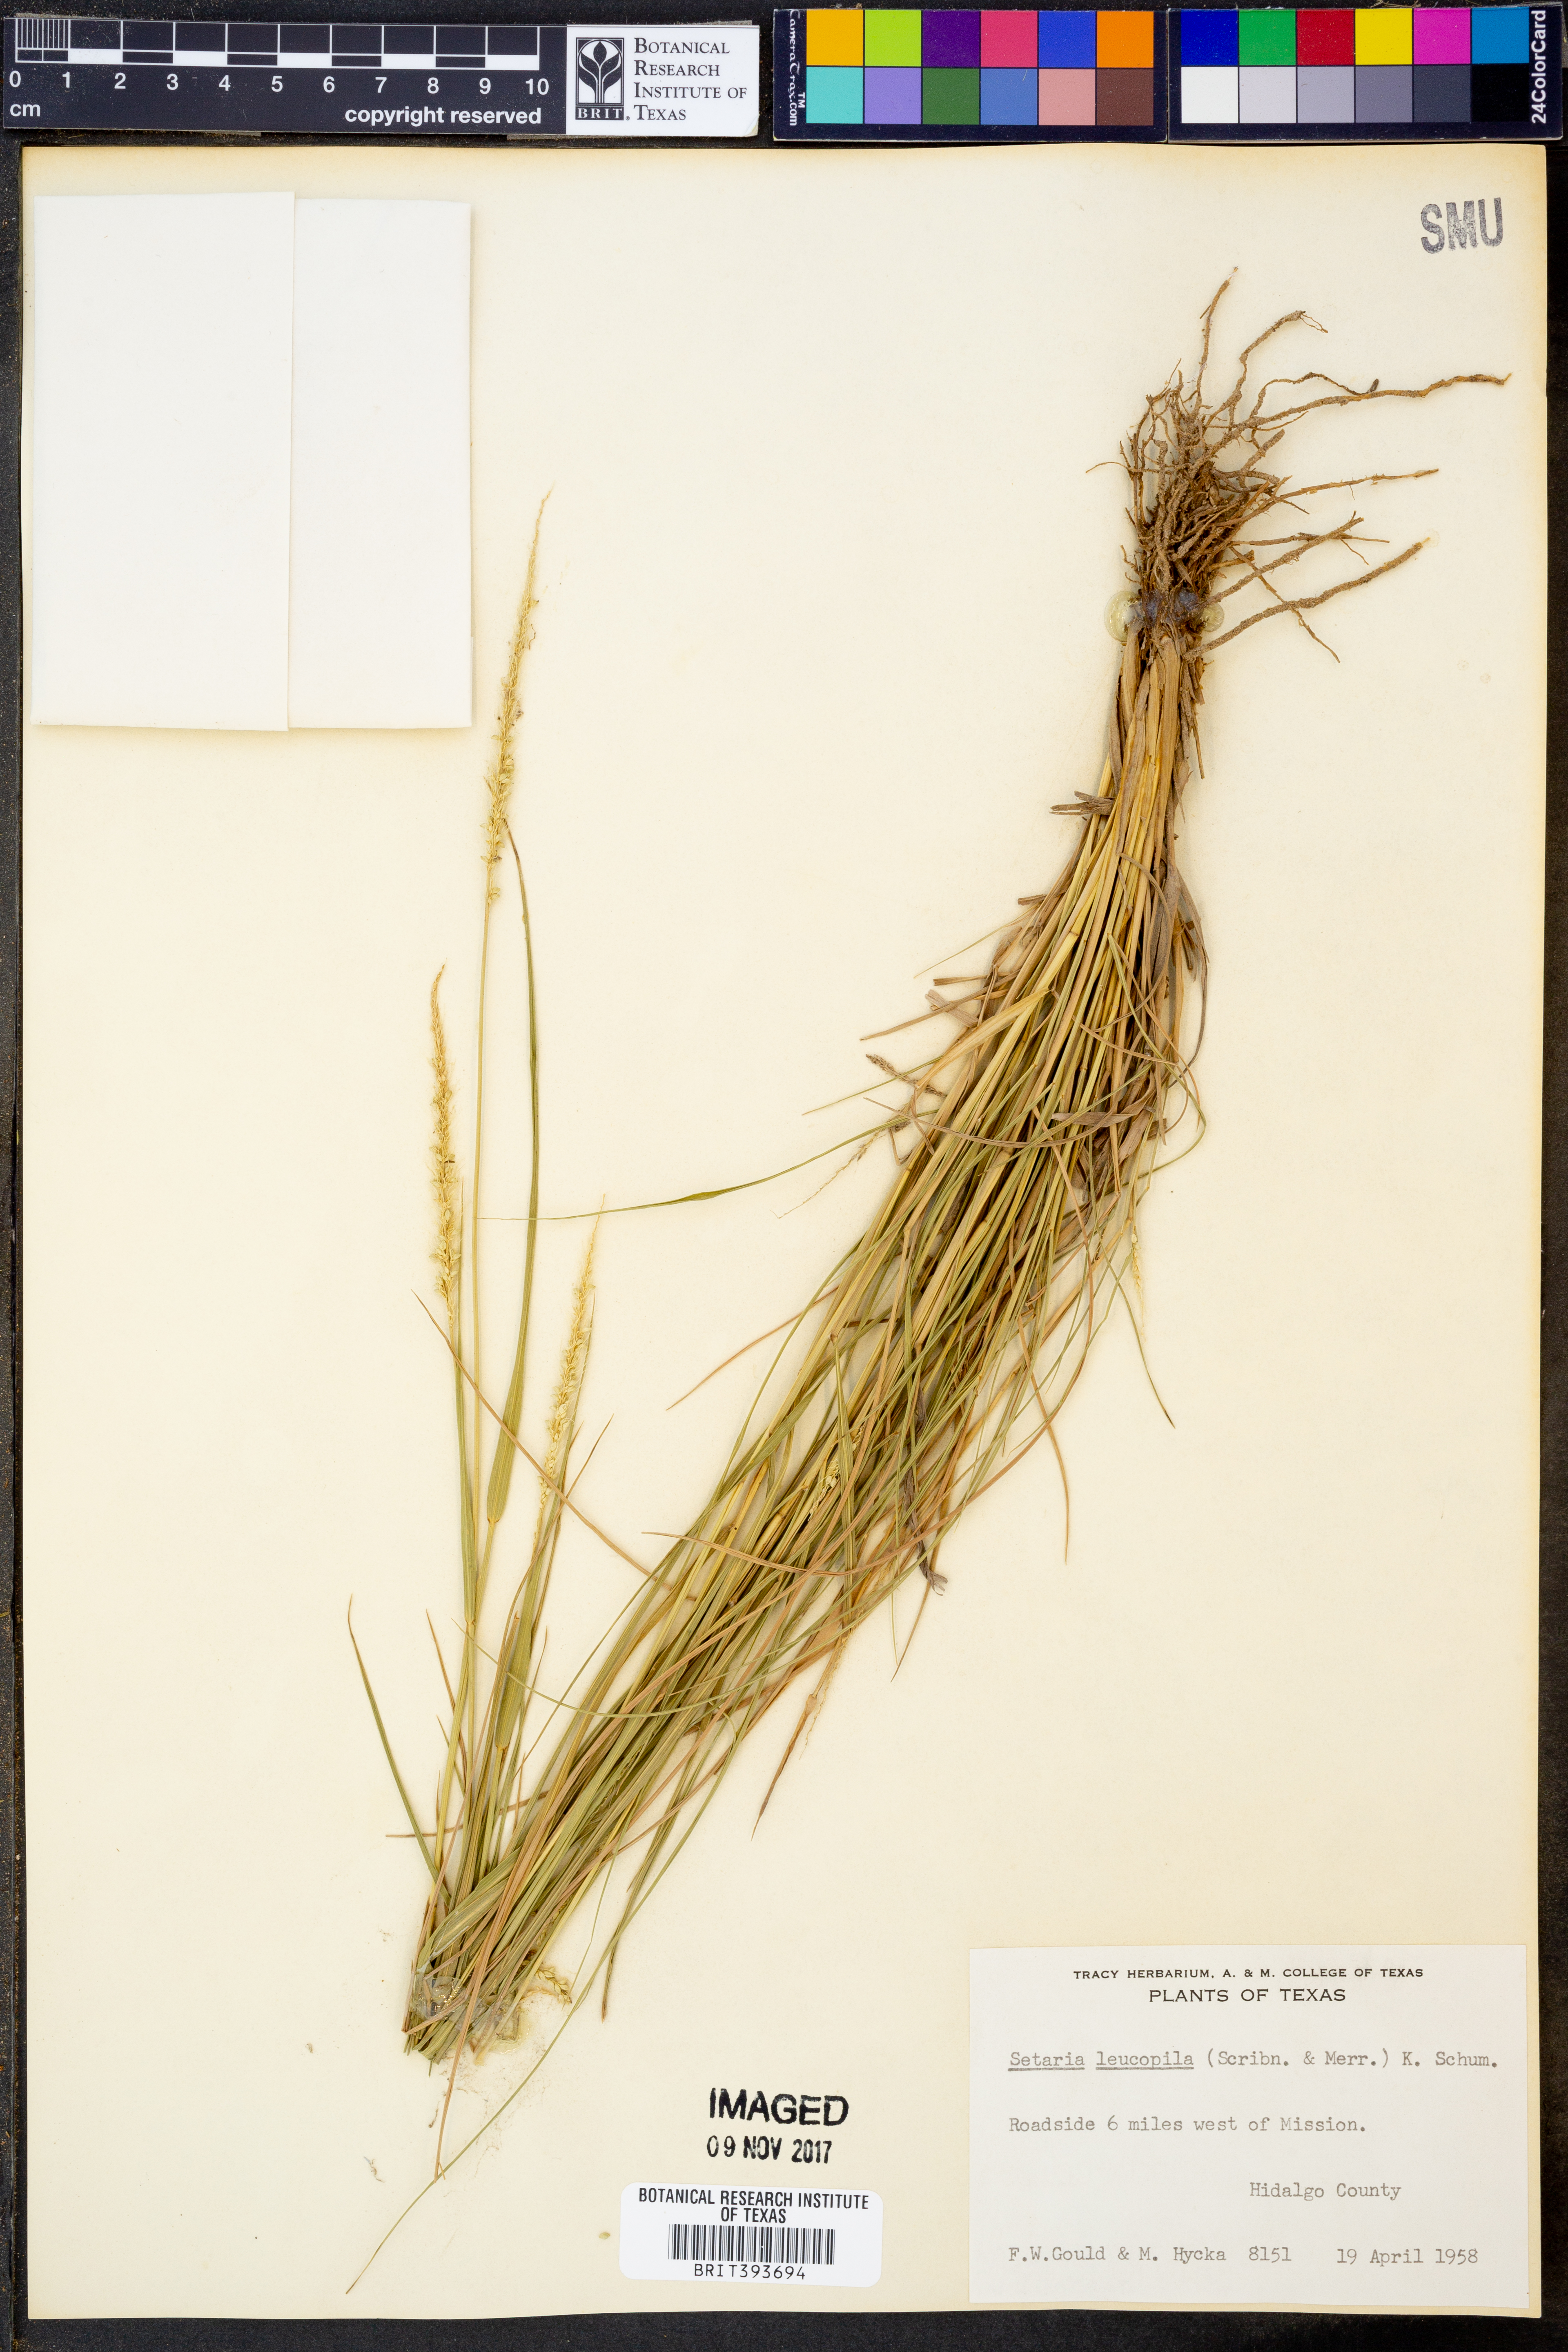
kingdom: Plantae
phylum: Tracheophyta
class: Liliopsida
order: Poales
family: Poaceae
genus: Setaria
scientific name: Setaria leucopila
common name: Plains bristle grass
